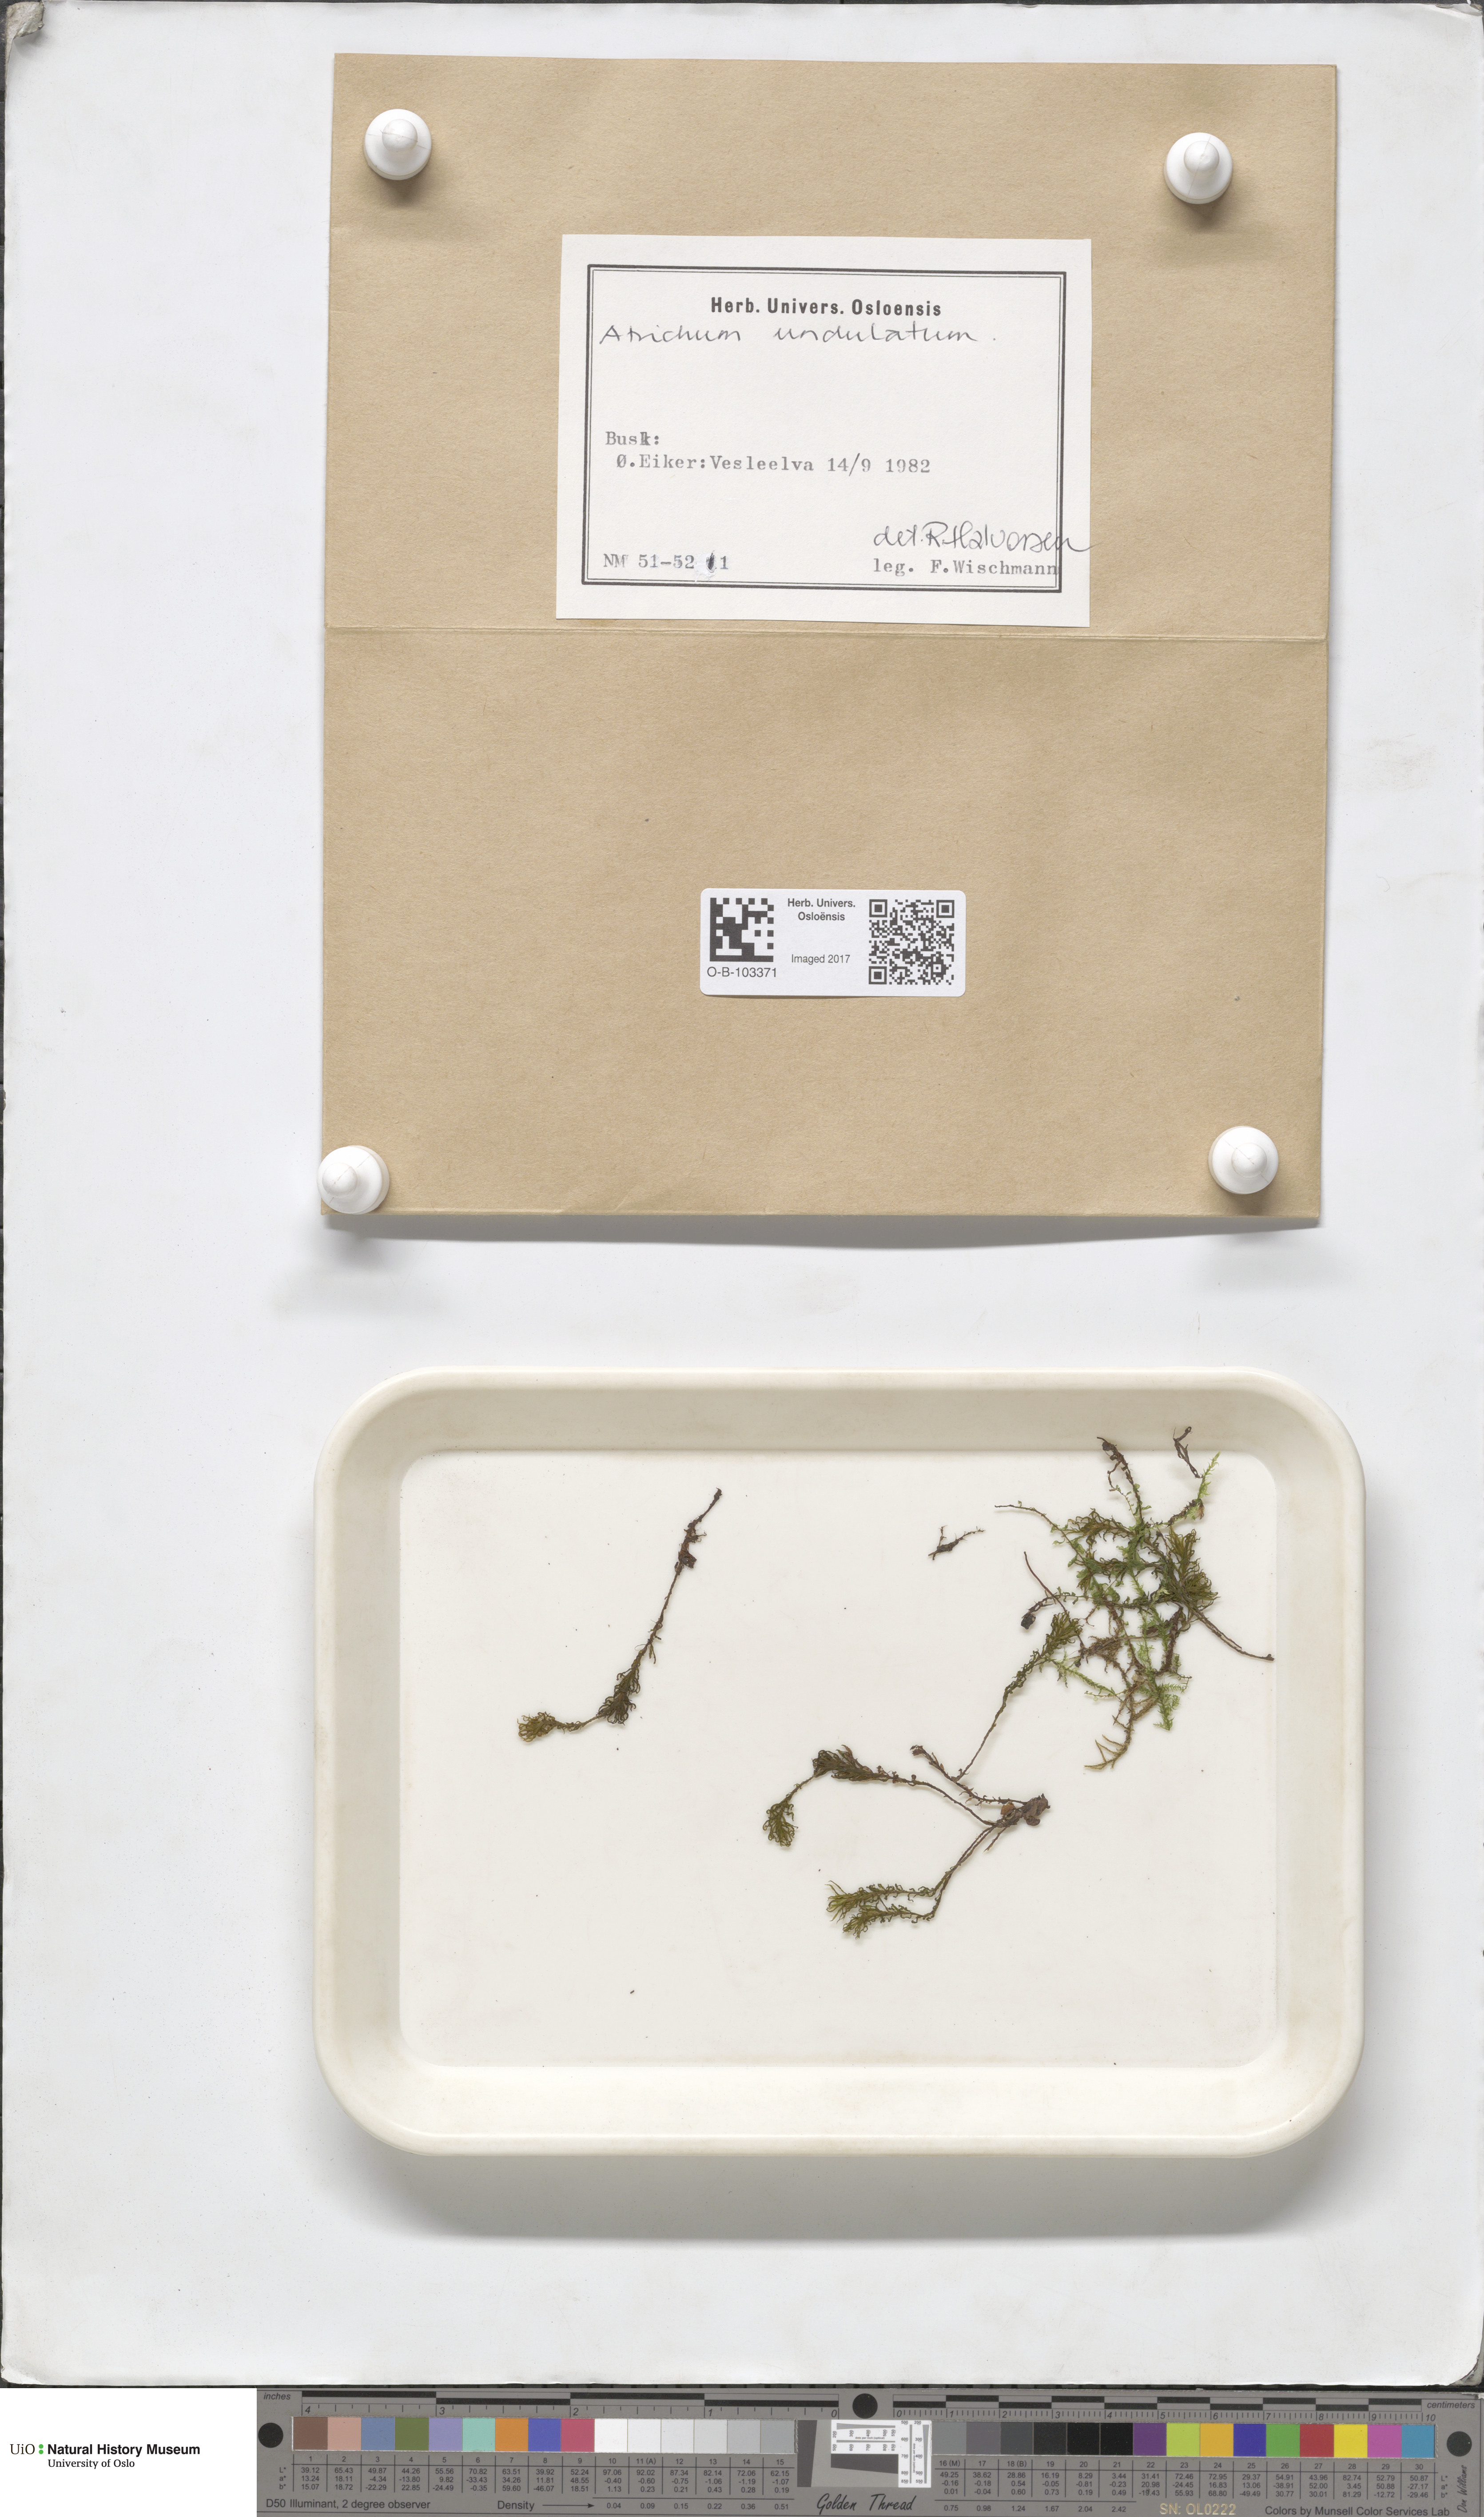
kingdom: Plantae
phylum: Bryophyta
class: Polytrichopsida
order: Polytrichales
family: Polytrichaceae
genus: Atrichum
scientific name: Atrichum undulatum
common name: Common smoothcap
